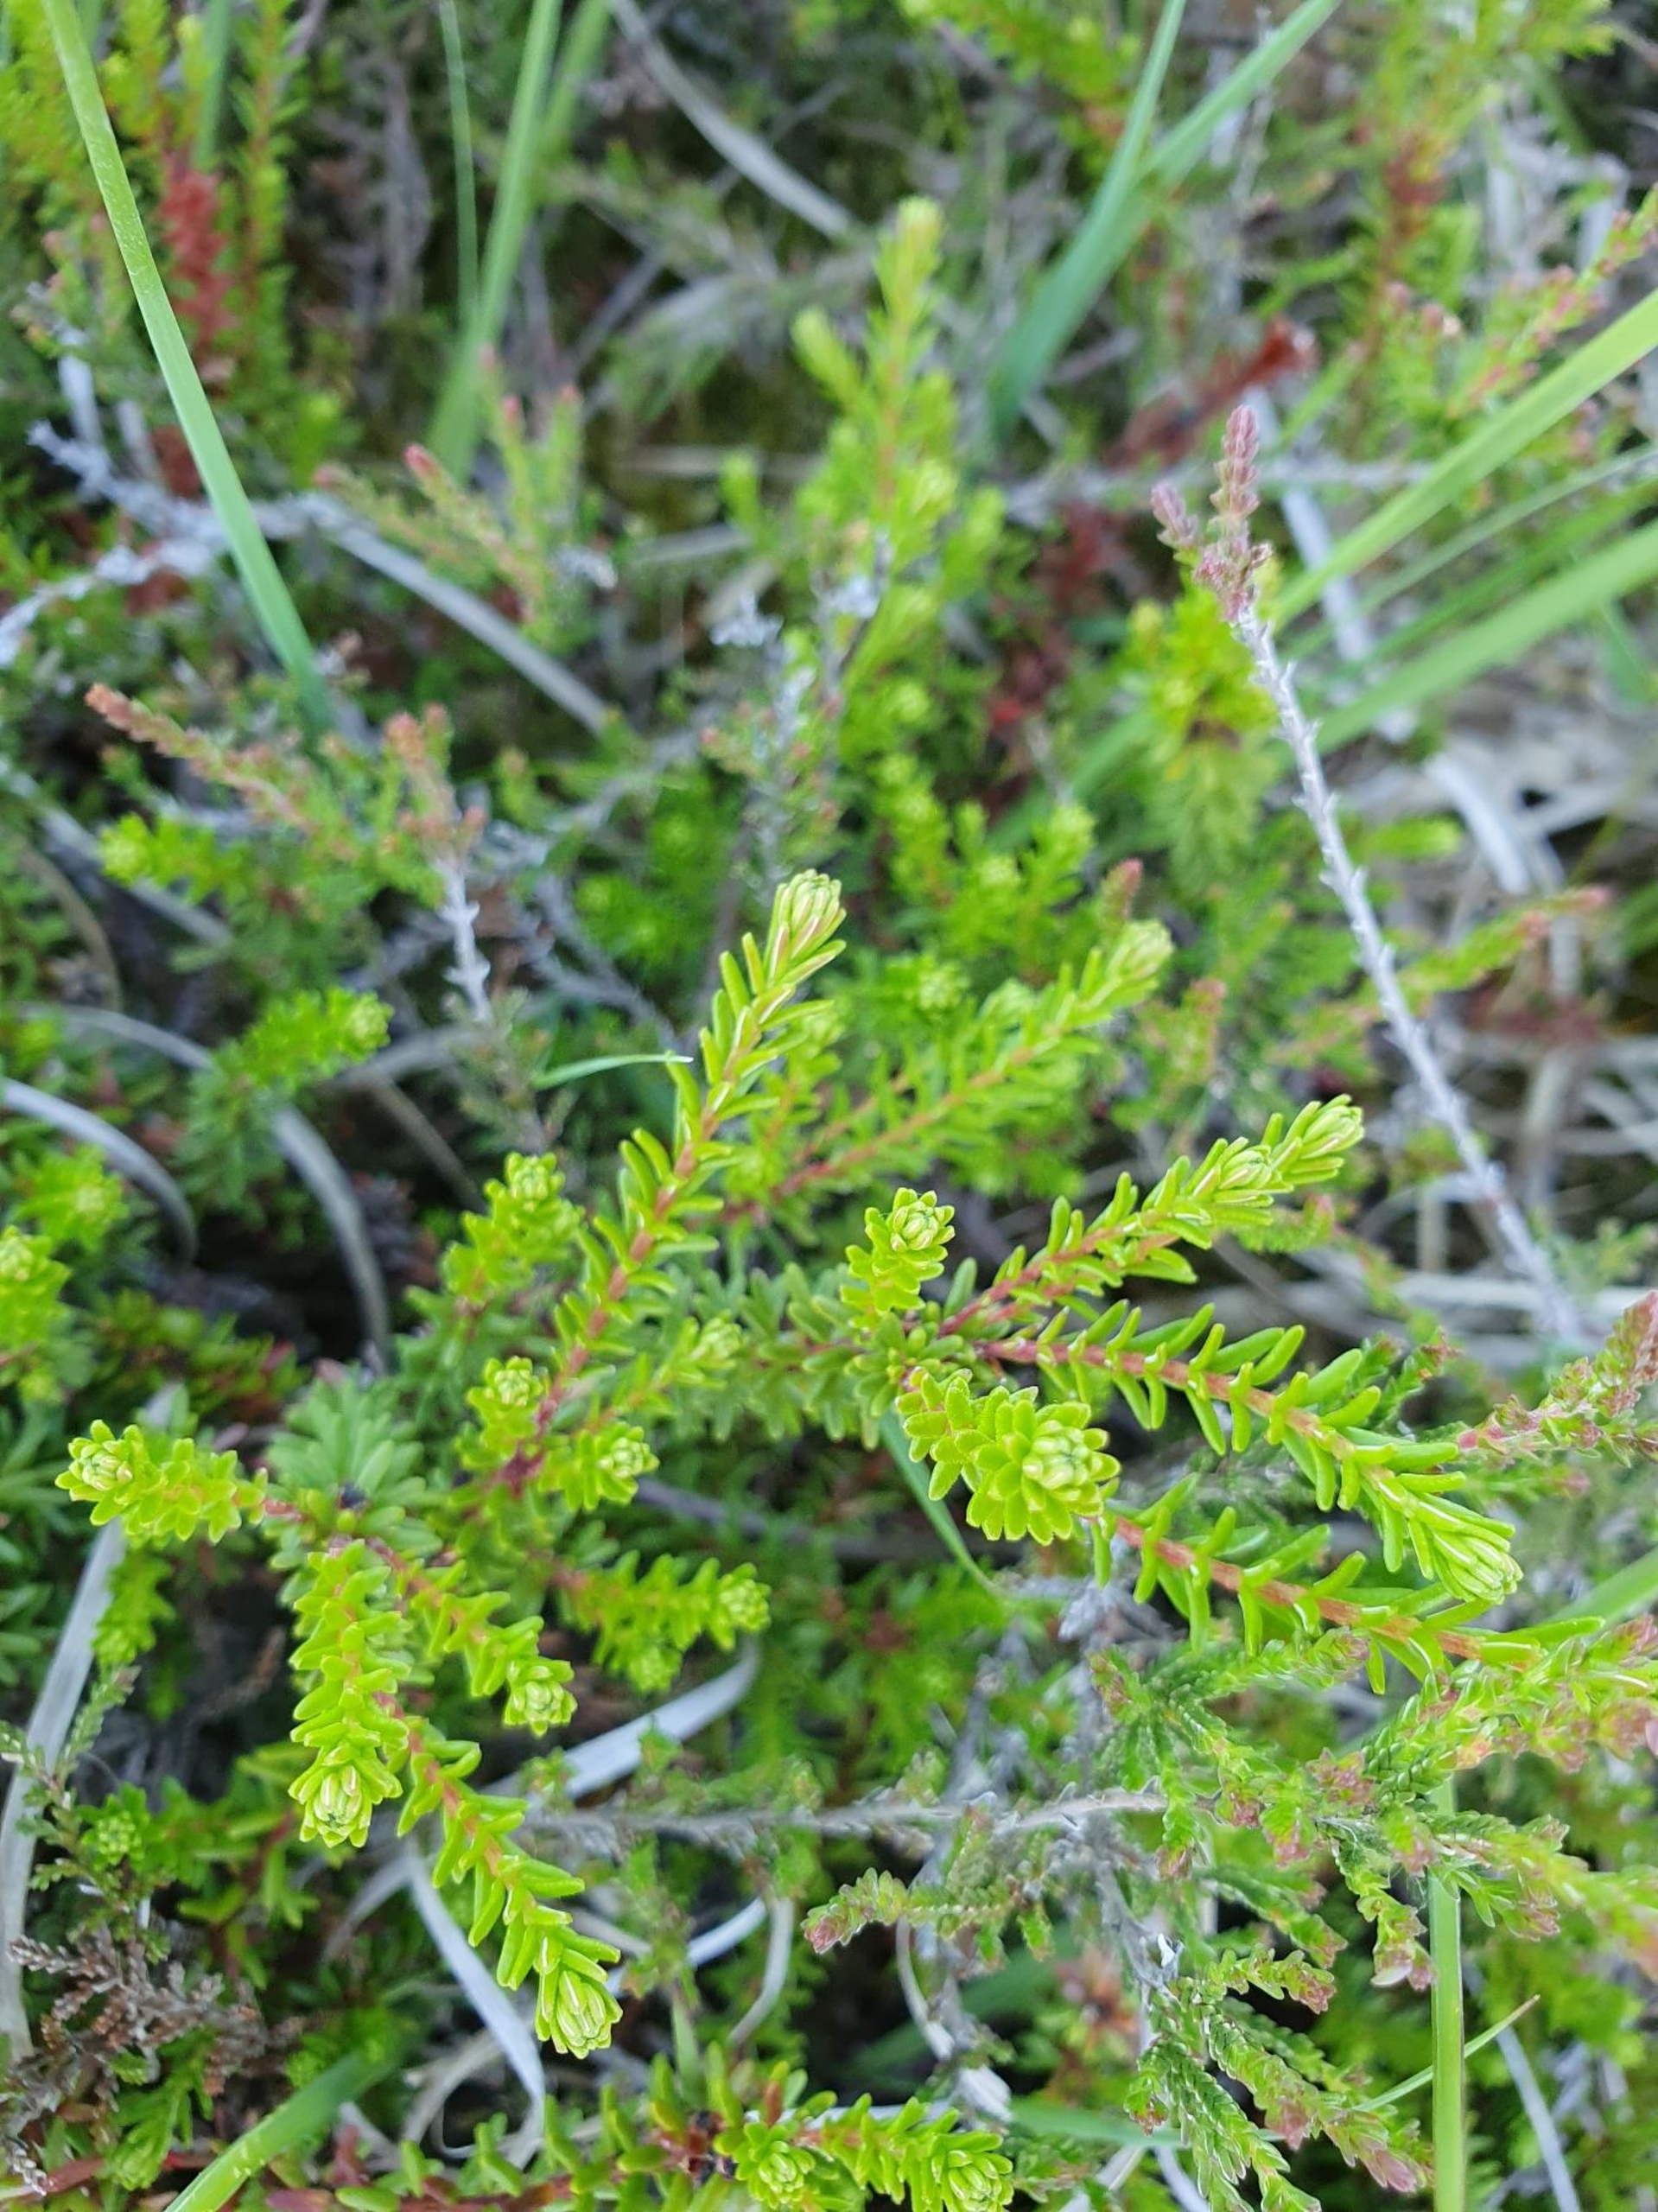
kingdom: Plantae
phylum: Tracheophyta
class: Magnoliopsida
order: Ericales
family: Ericaceae
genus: Empetrum
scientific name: Empetrum nigrum
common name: Revling
